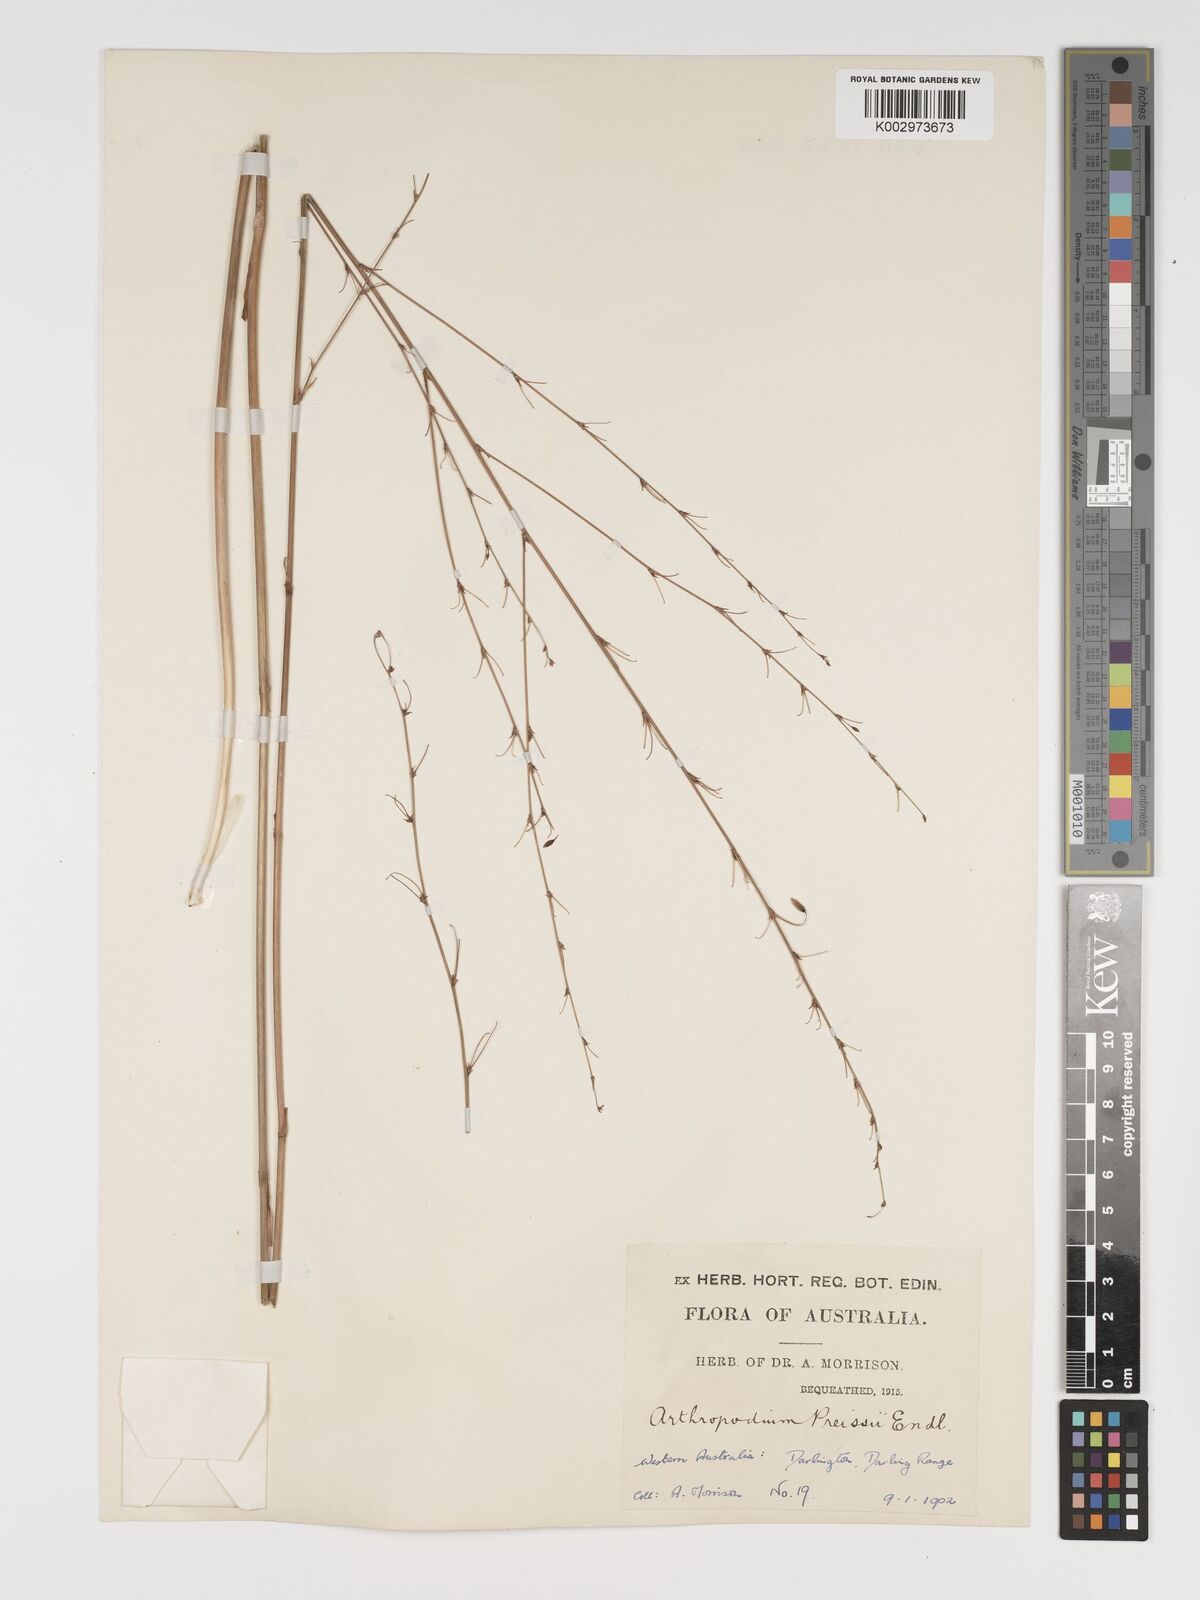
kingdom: Plantae
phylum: Tracheophyta
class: Liliopsida
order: Asparagales
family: Asparagaceae
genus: Dichopogon
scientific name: Dichopogon capillipes
